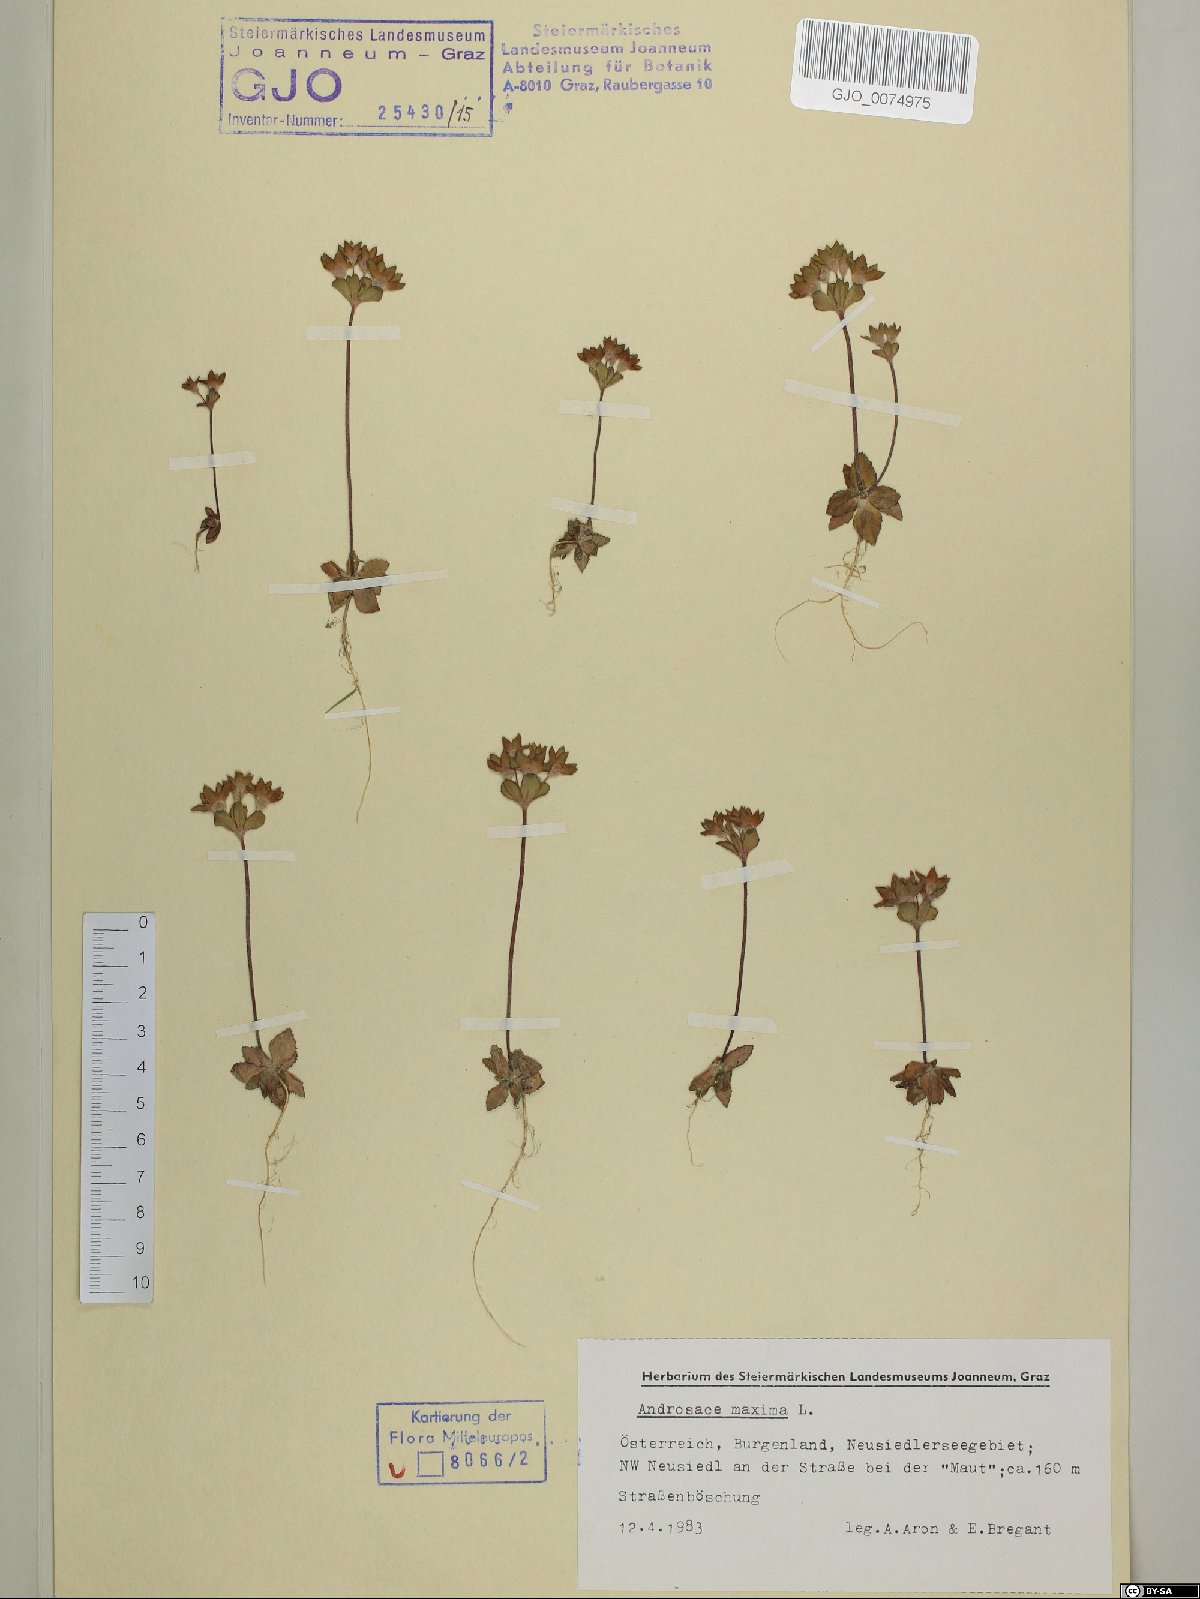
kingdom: Plantae
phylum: Tracheophyta
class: Magnoliopsida
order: Ericales
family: Primulaceae
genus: Androsace
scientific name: Androsace maxima
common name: Annual androsace
